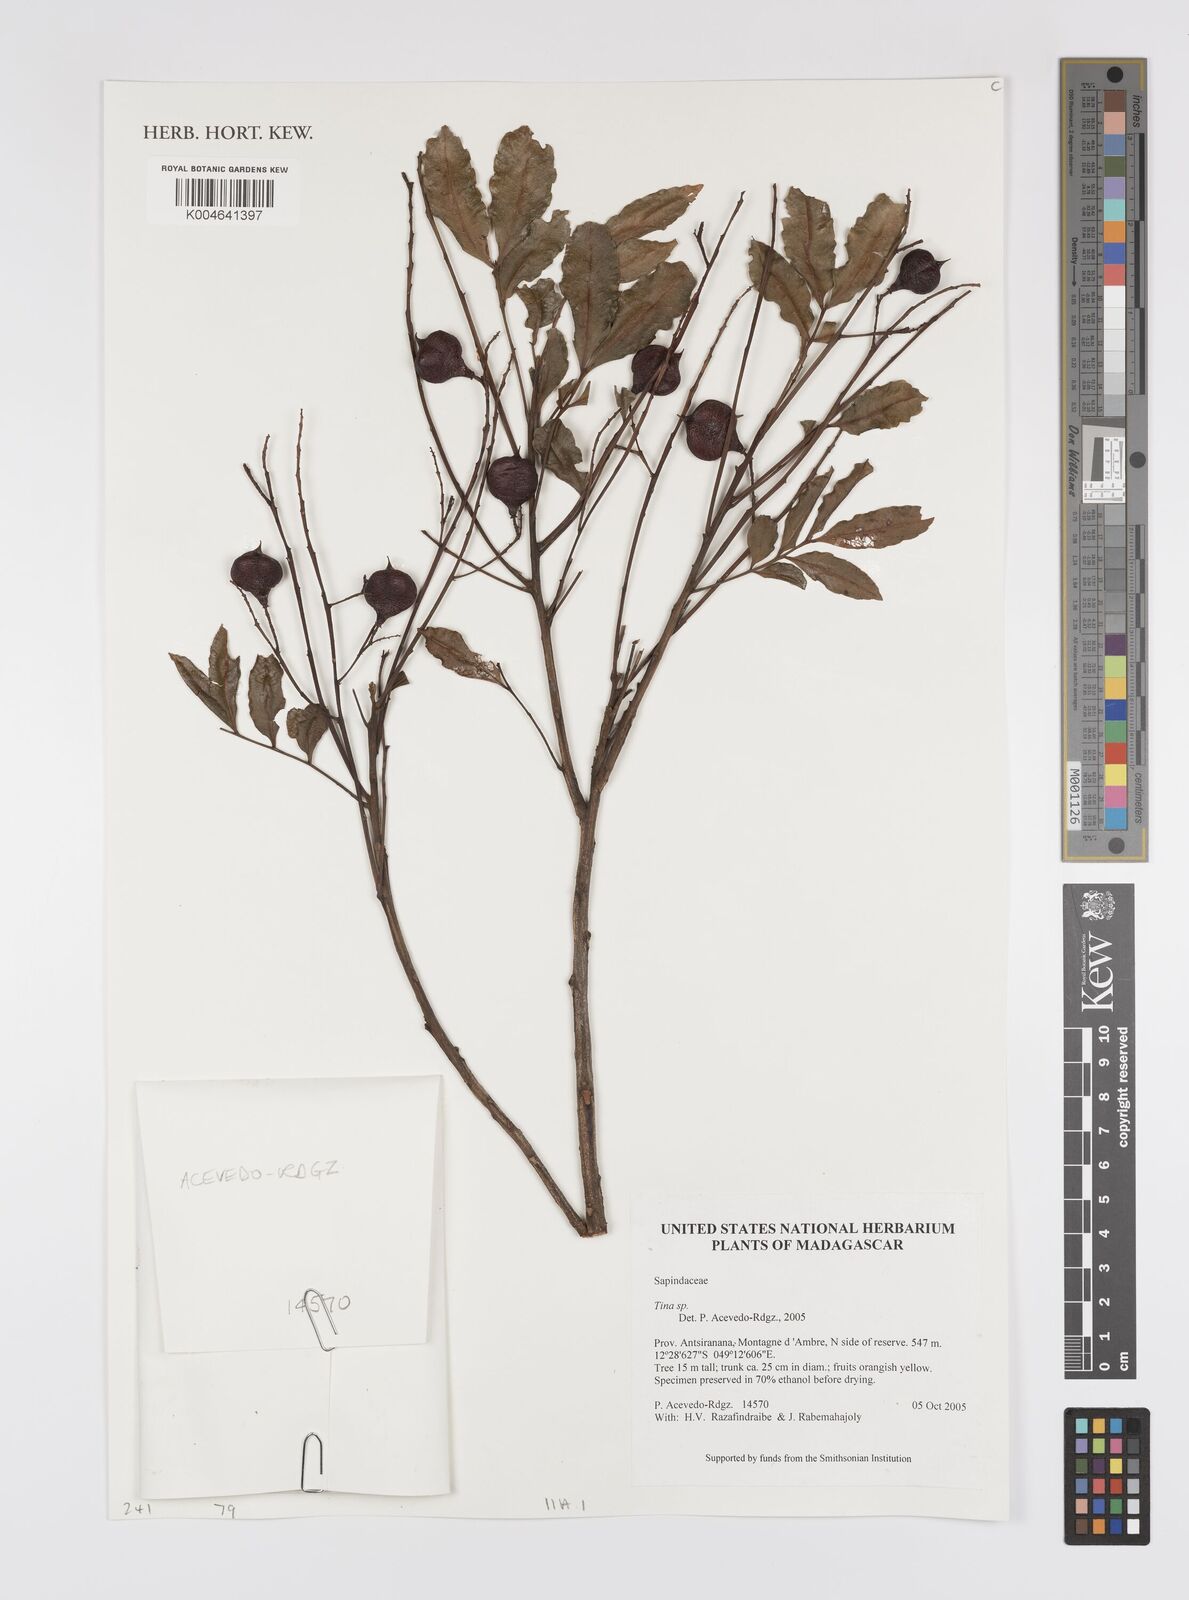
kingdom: Plantae
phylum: Tracheophyta
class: Magnoliopsida
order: Sapindales
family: Sapindaceae
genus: Tina
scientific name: Tina
